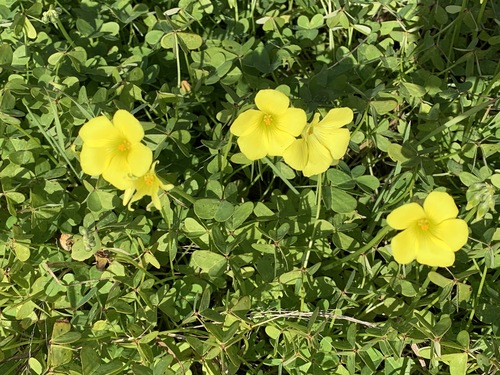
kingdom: Plantae
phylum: Tracheophyta
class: Magnoliopsida
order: Oxalidales
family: Oxalidaceae
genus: Oxalis
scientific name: Oxalis pes-caprae
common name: Bermuda-buttercup
